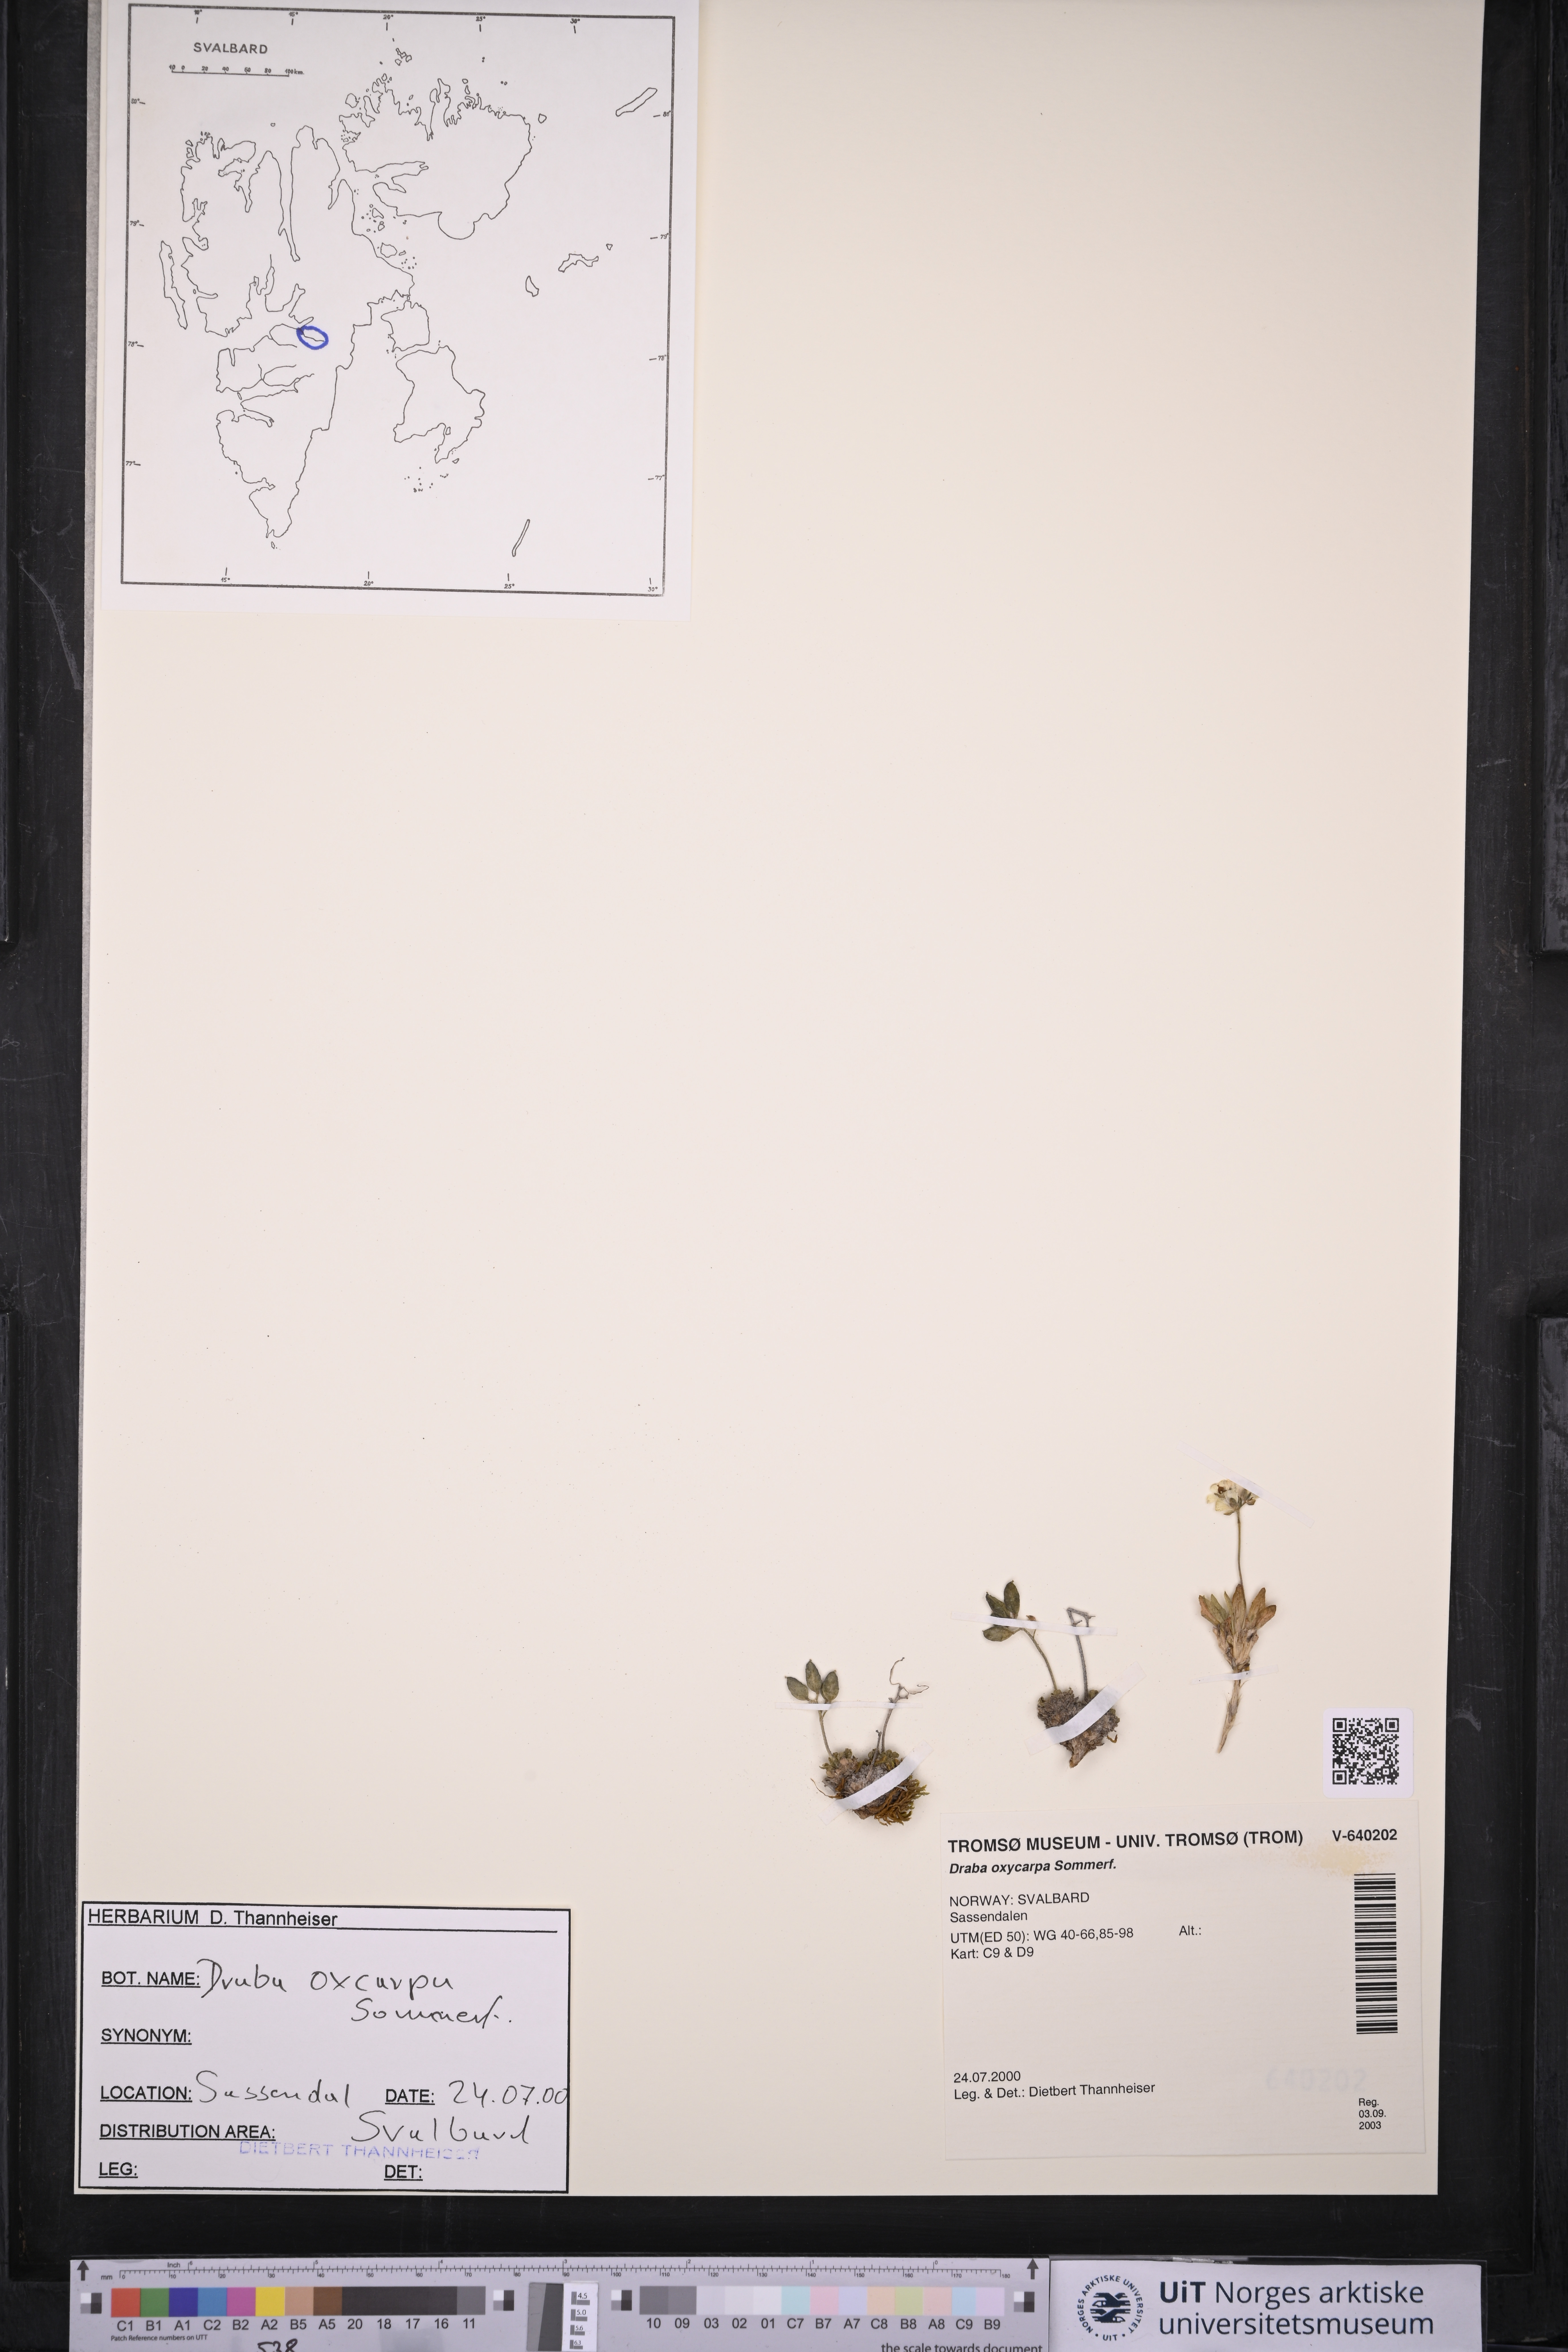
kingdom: Plantae
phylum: Tracheophyta
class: Magnoliopsida
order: Brassicales
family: Brassicaceae
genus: Draba
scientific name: Draba oxycarpa
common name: Sharp-fruited whitlow-grass
